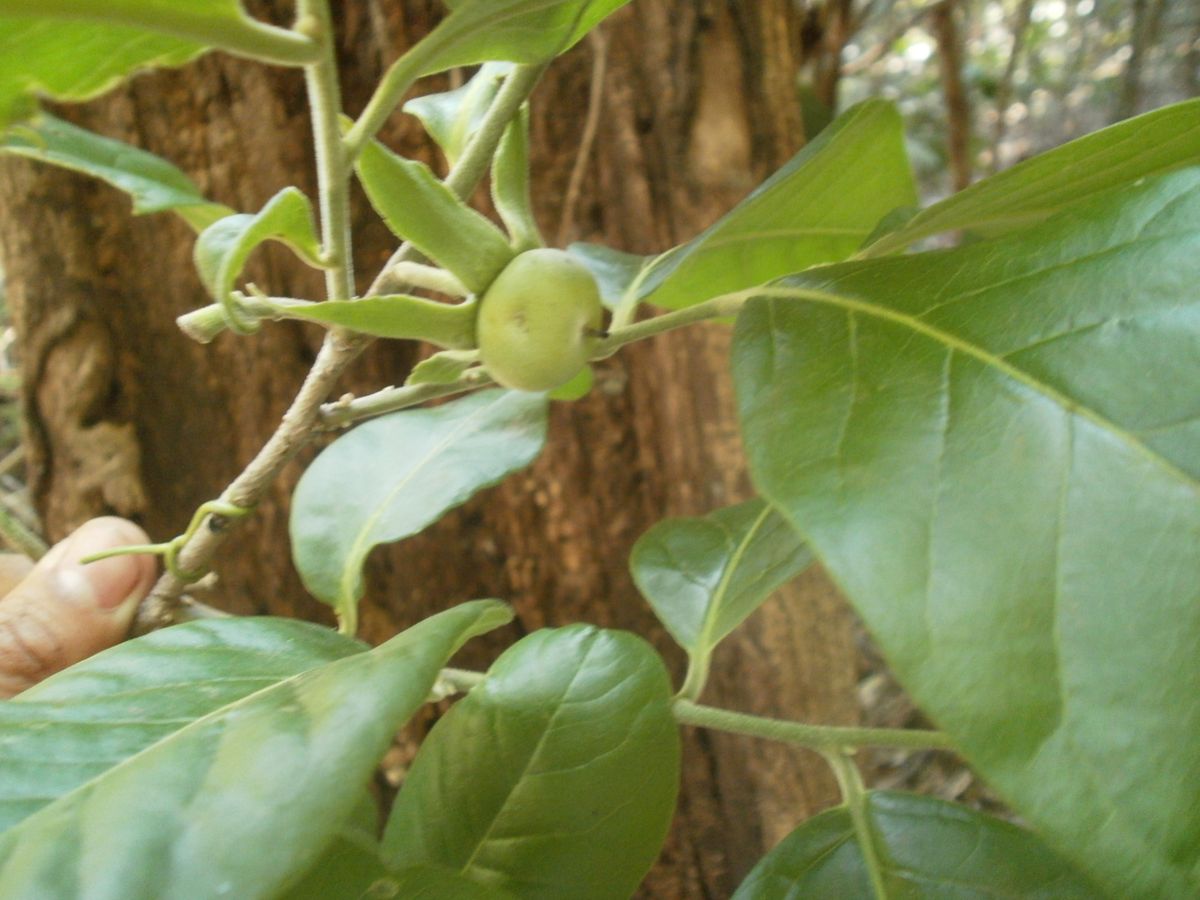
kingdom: Plantae
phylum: Tracheophyta
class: Magnoliopsida
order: Ericales
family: Ebenaceae
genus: Diospyros
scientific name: Diospyros rekoi
